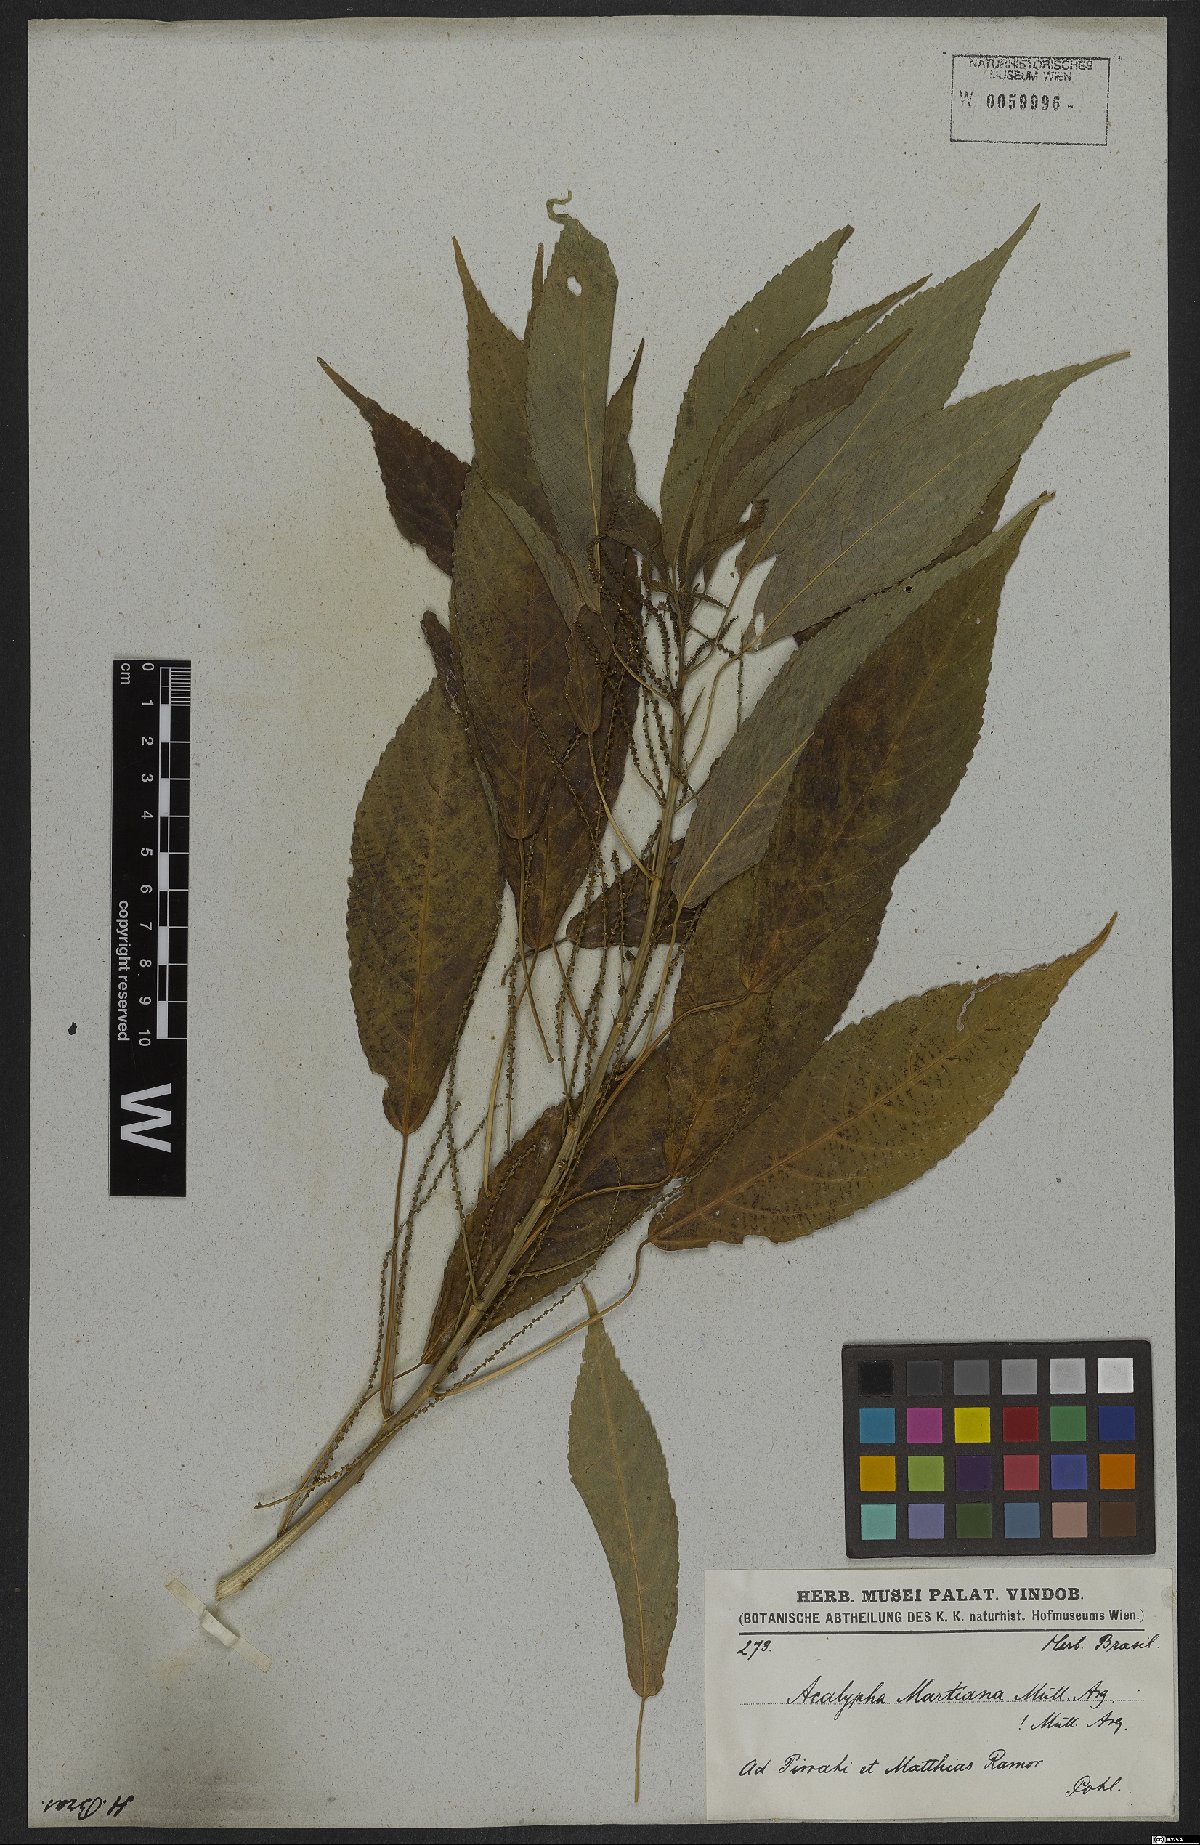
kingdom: Plantae
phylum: Tracheophyta
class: Magnoliopsida
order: Malpighiales
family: Euphorbiaceae
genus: Acalypha
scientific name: Acalypha martiana
